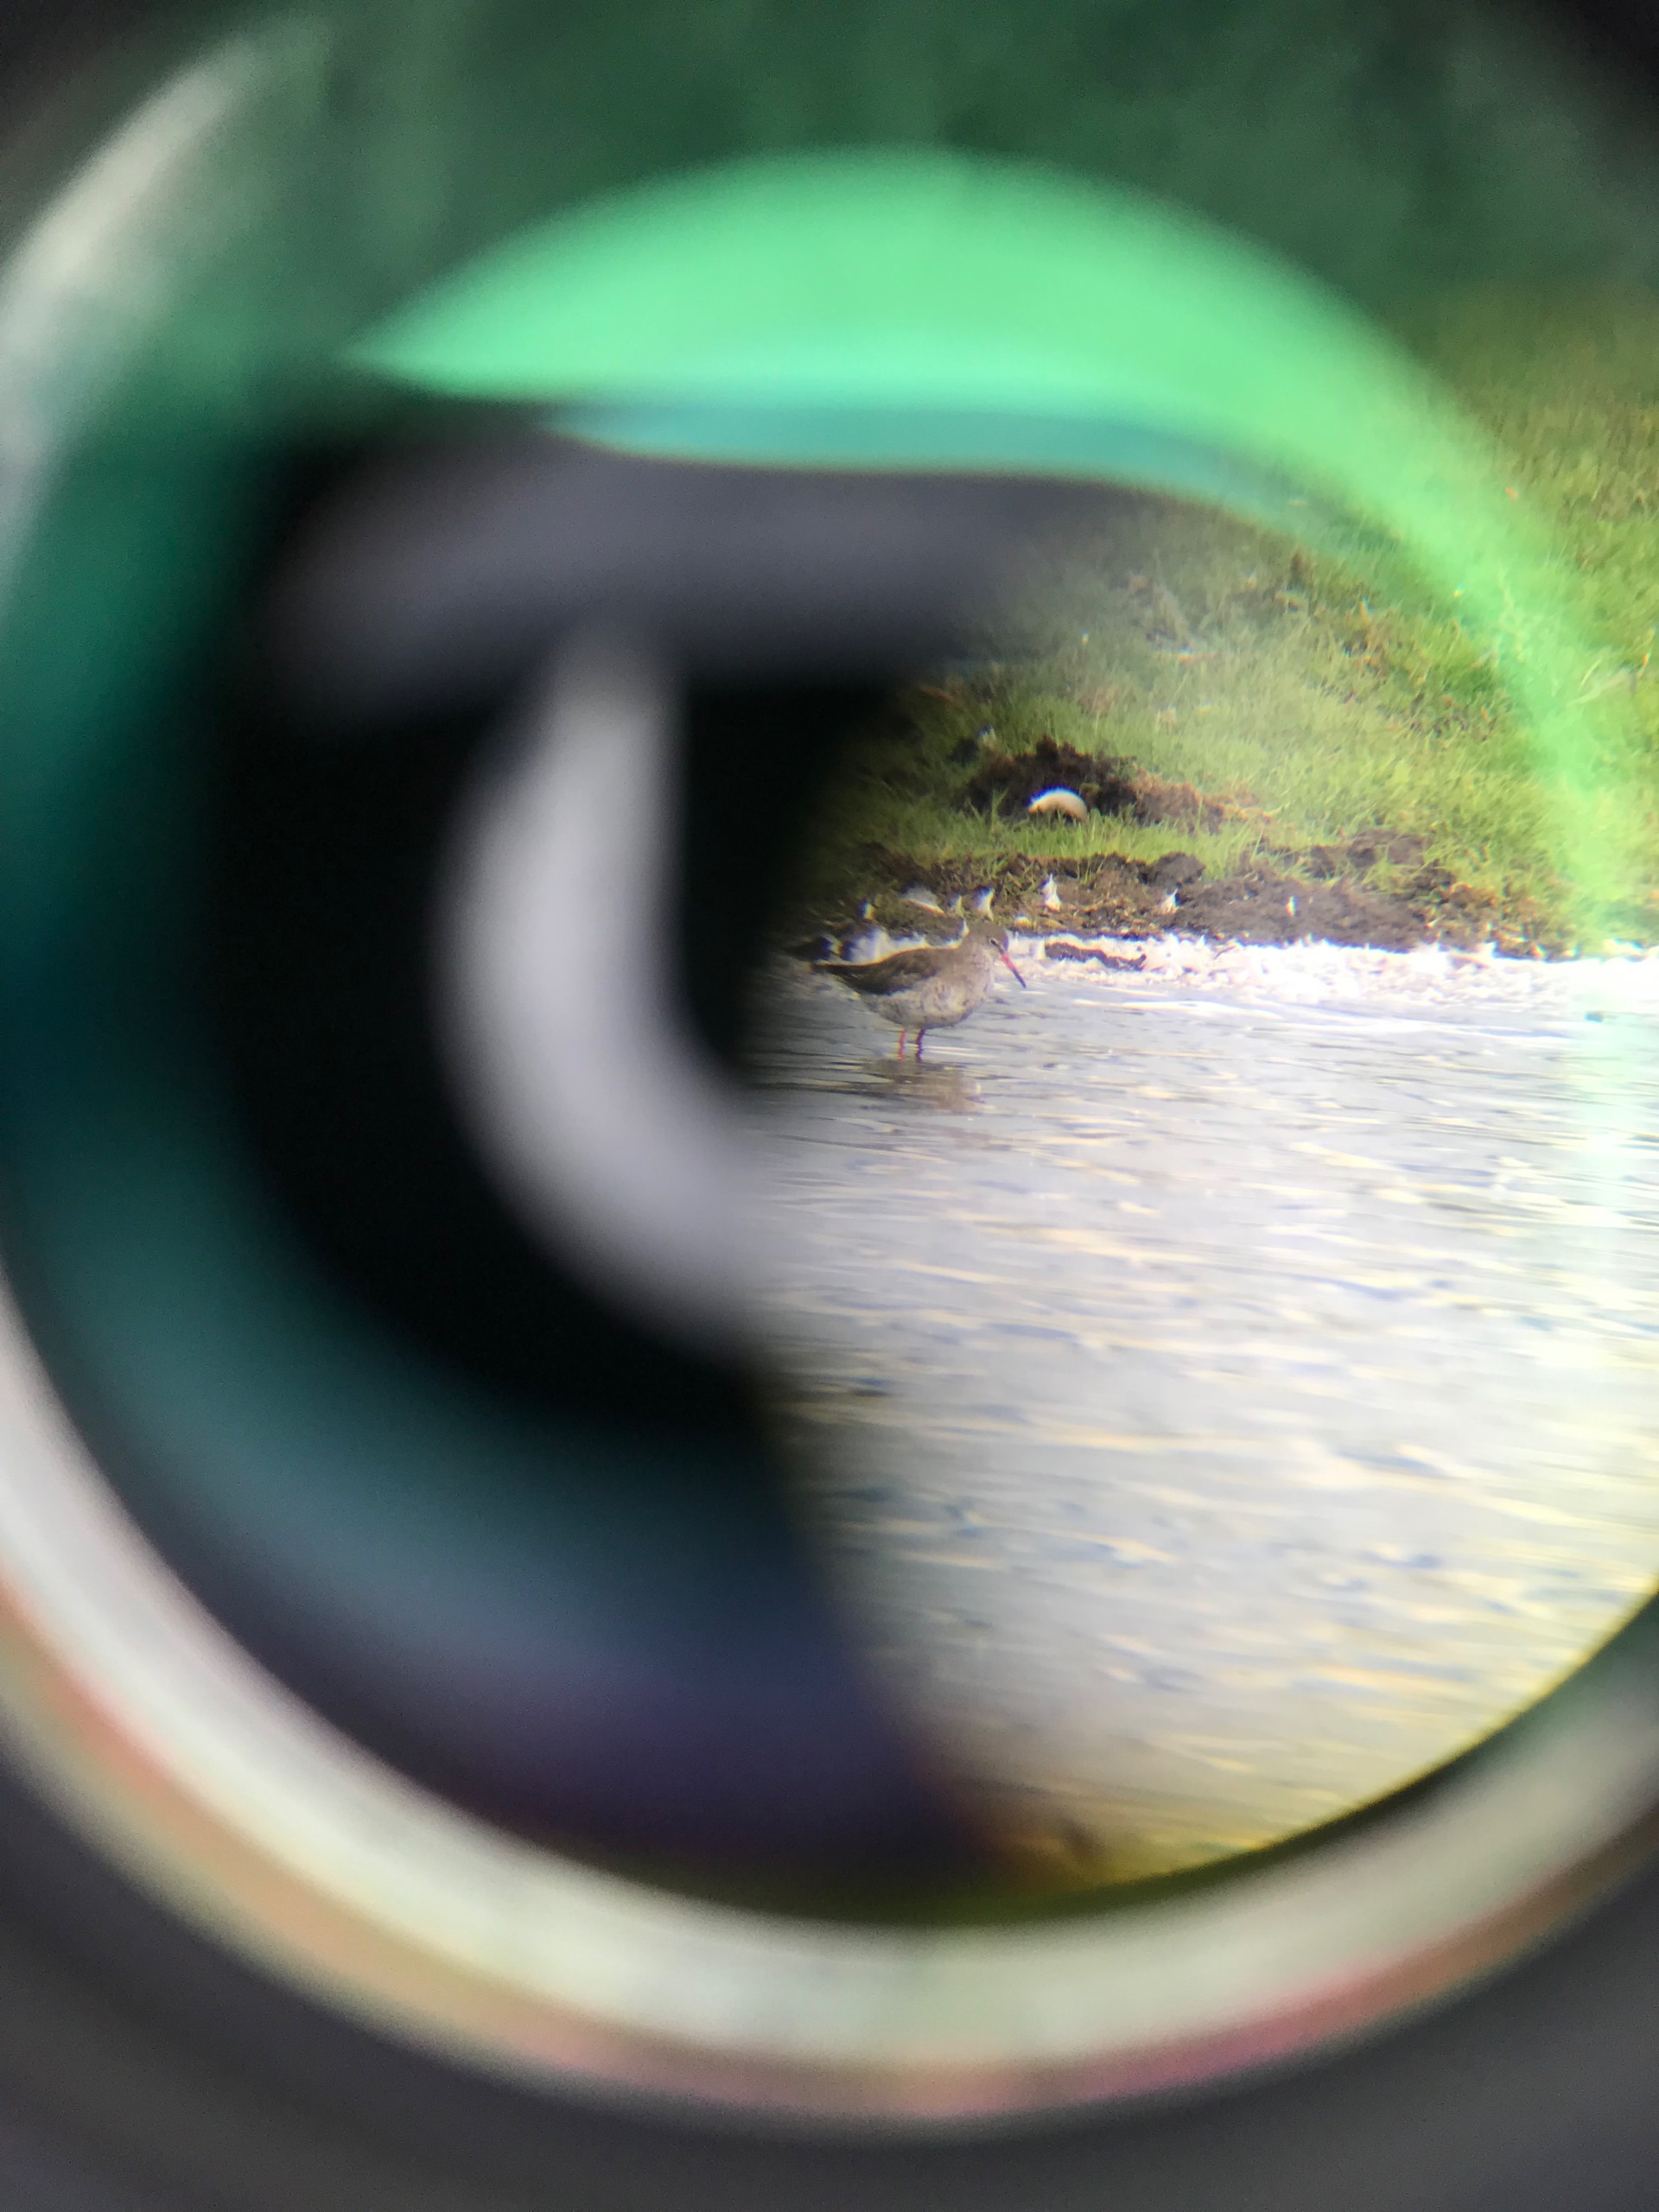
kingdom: Animalia
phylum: Chordata
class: Aves
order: Charadriiformes
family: Scolopacidae
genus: Tringa
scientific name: Tringa totanus
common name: Rødben
